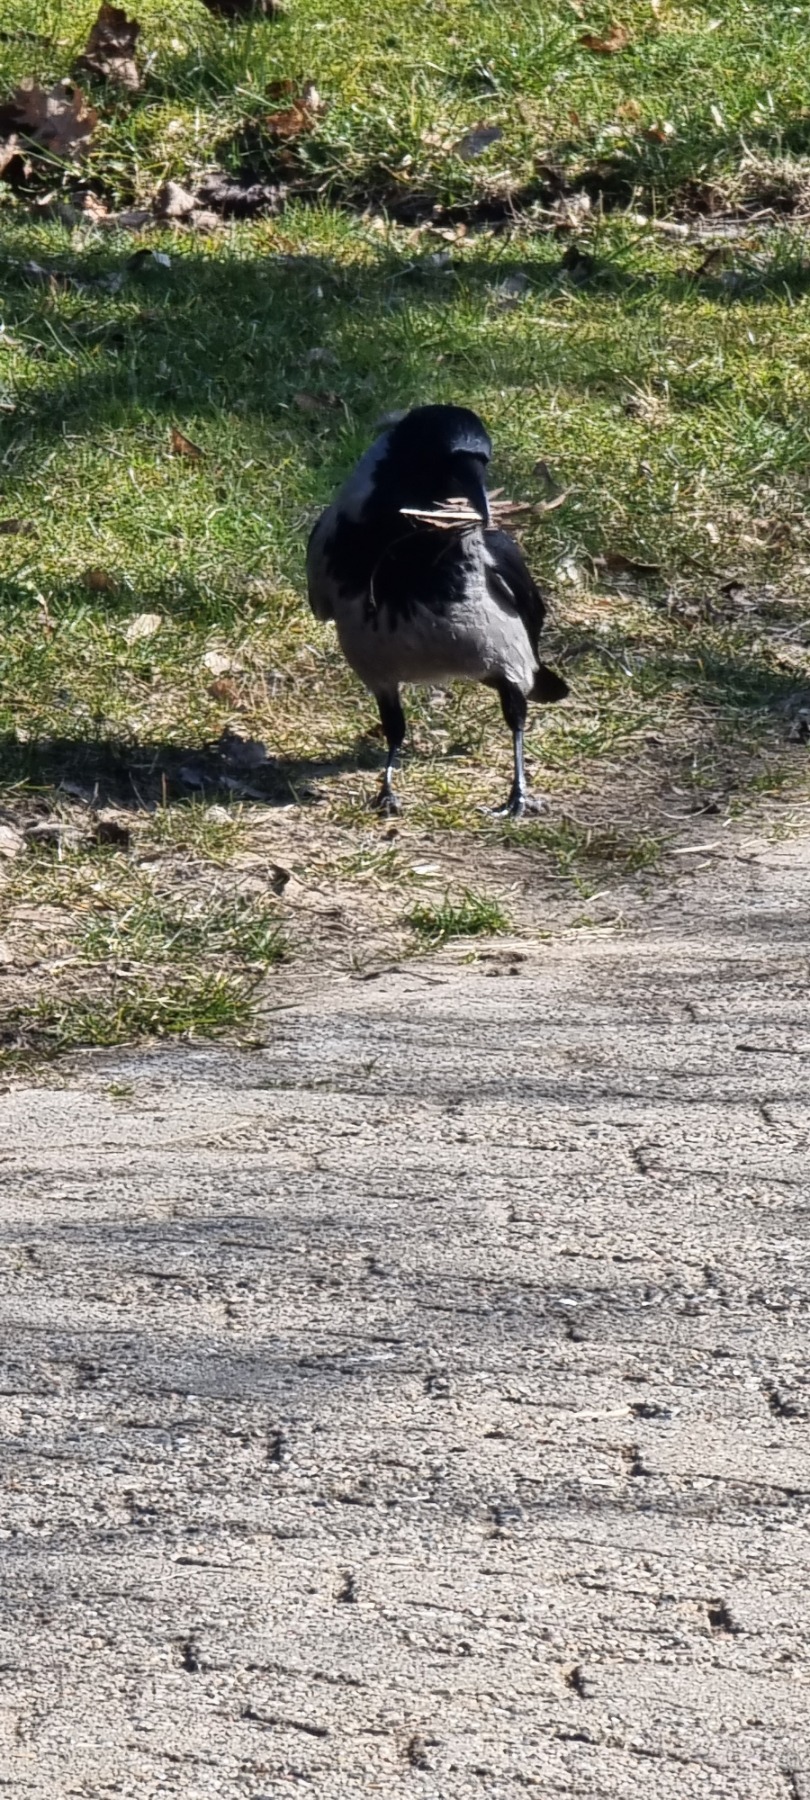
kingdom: Animalia
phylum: Chordata
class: Aves
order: Passeriformes
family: Corvidae
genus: Corvus
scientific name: Corvus cornix
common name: Gråkrage
